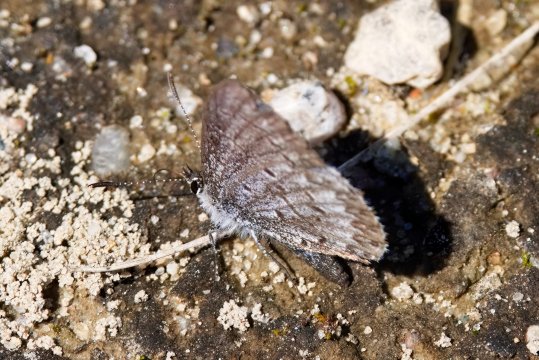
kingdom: Animalia
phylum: Arthropoda
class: Insecta
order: Lepidoptera
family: Lycaenidae
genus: Celastrina
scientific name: Celastrina lucia
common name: Northern Spring Azure
